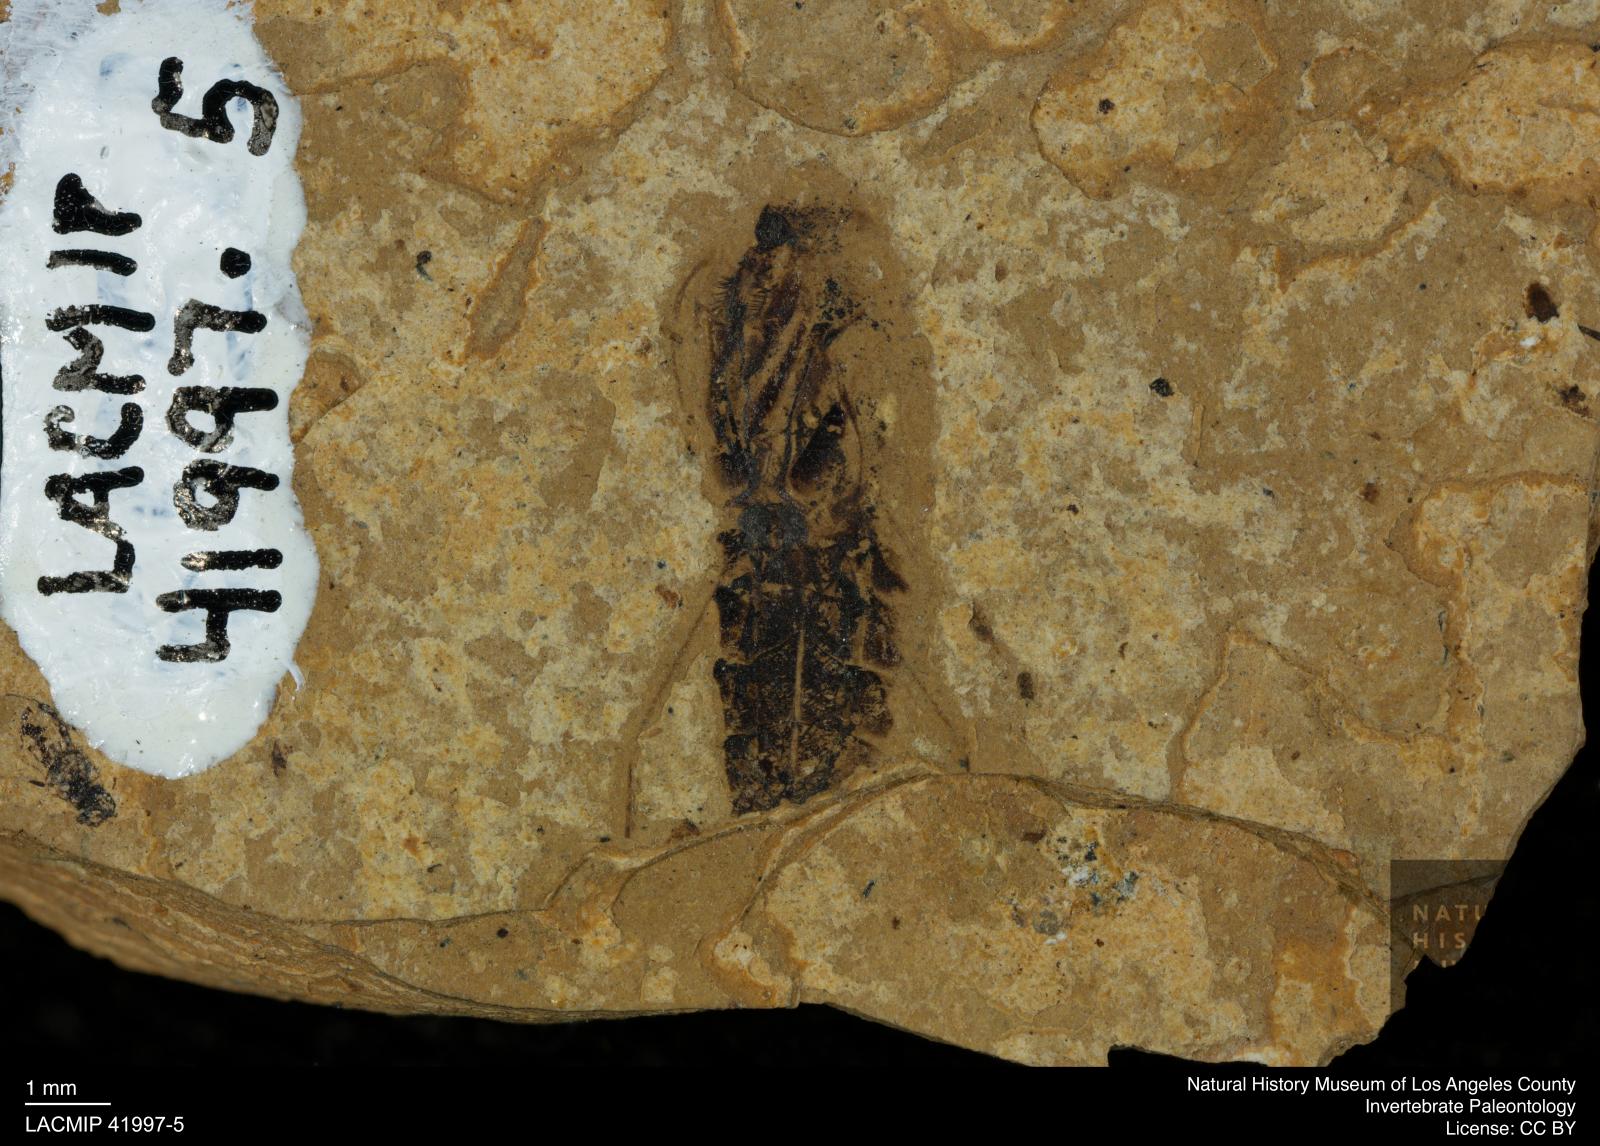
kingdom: Animalia
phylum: Arthropoda
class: Insecta
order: Hemiptera
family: Notonectidae
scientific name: Notonectidae
